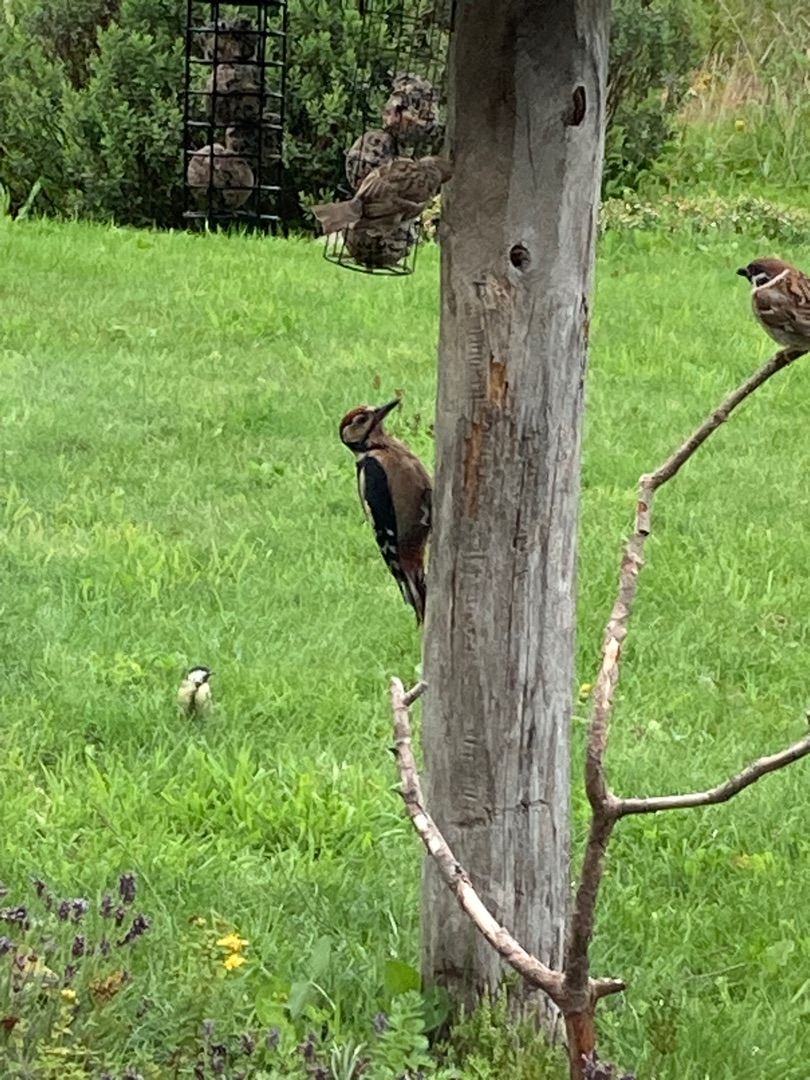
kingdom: Animalia
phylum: Chordata
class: Aves
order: Piciformes
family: Picidae
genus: Dendrocopos
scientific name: Dendrocopos major
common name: Stor flagspætte
